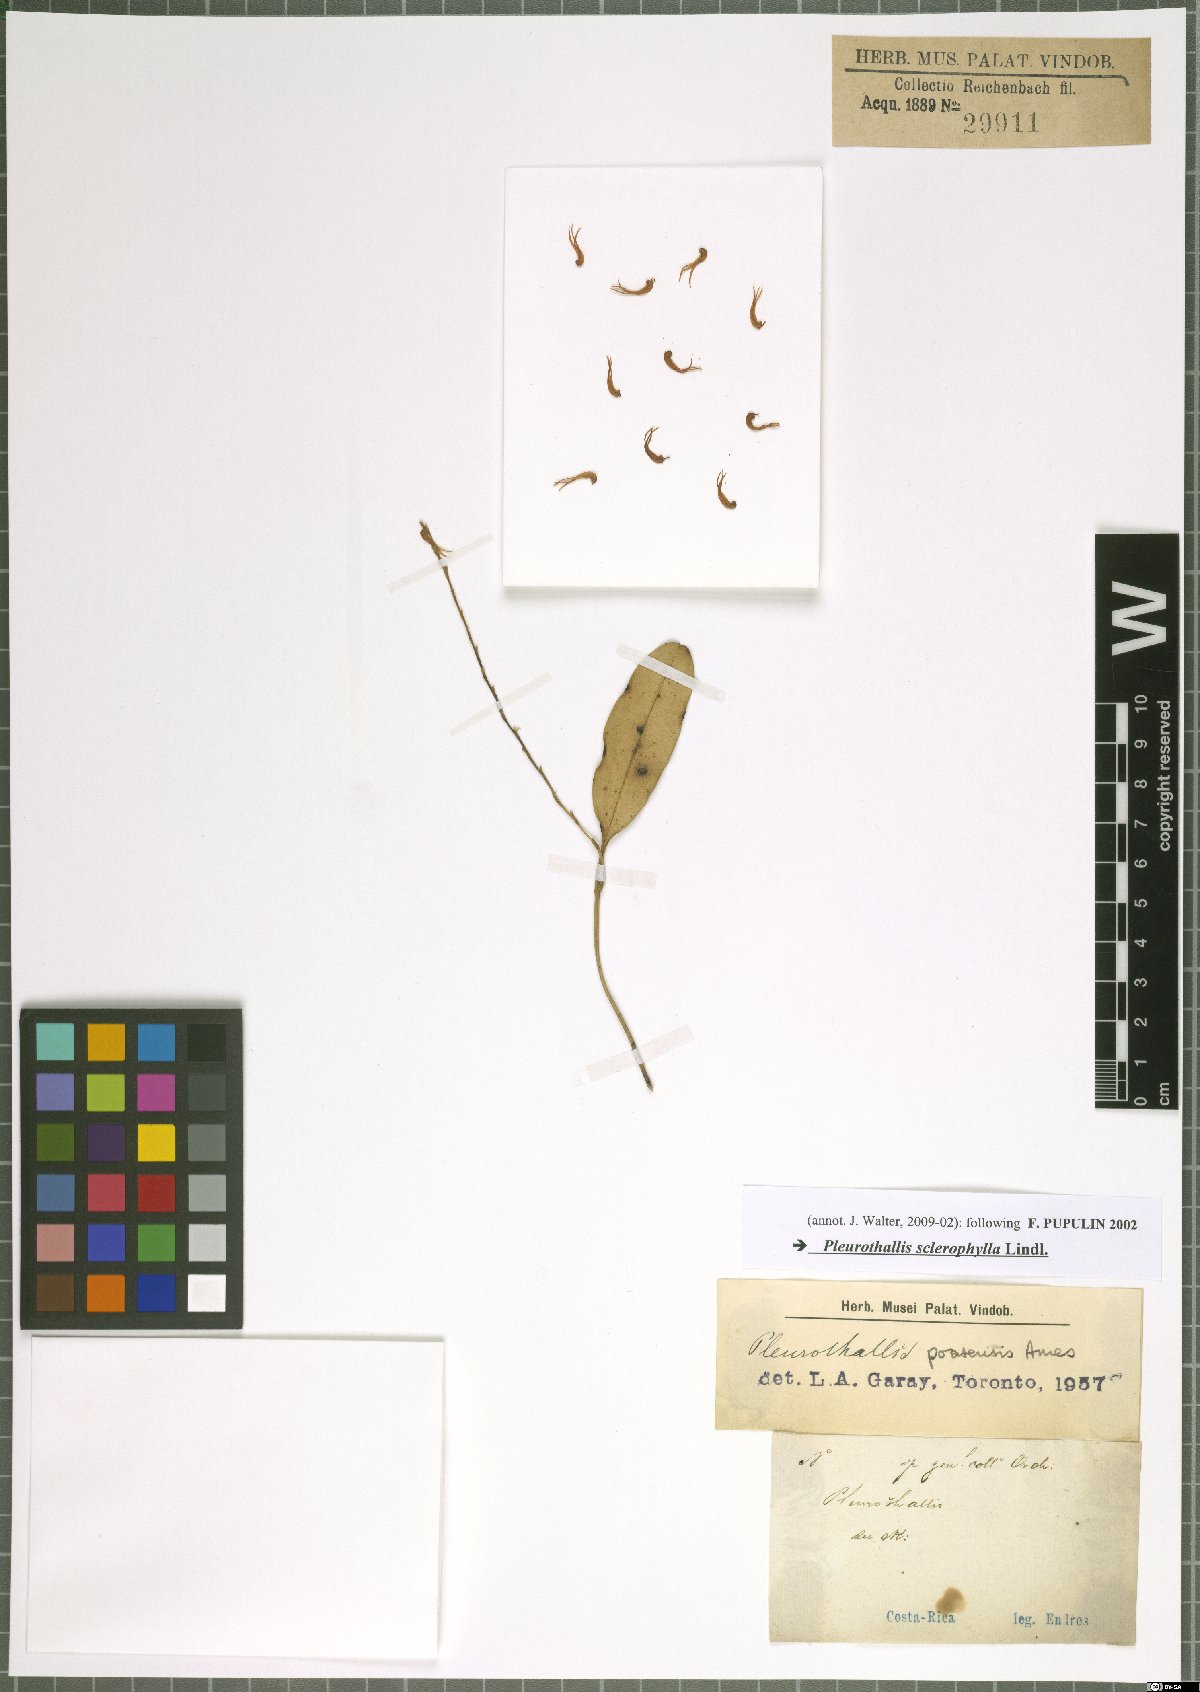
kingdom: Plantae
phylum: Tracheophyta
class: Liliopsida
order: Asparagales
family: Orchidaceae
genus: Stelis
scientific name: Stelis sclerophylla
